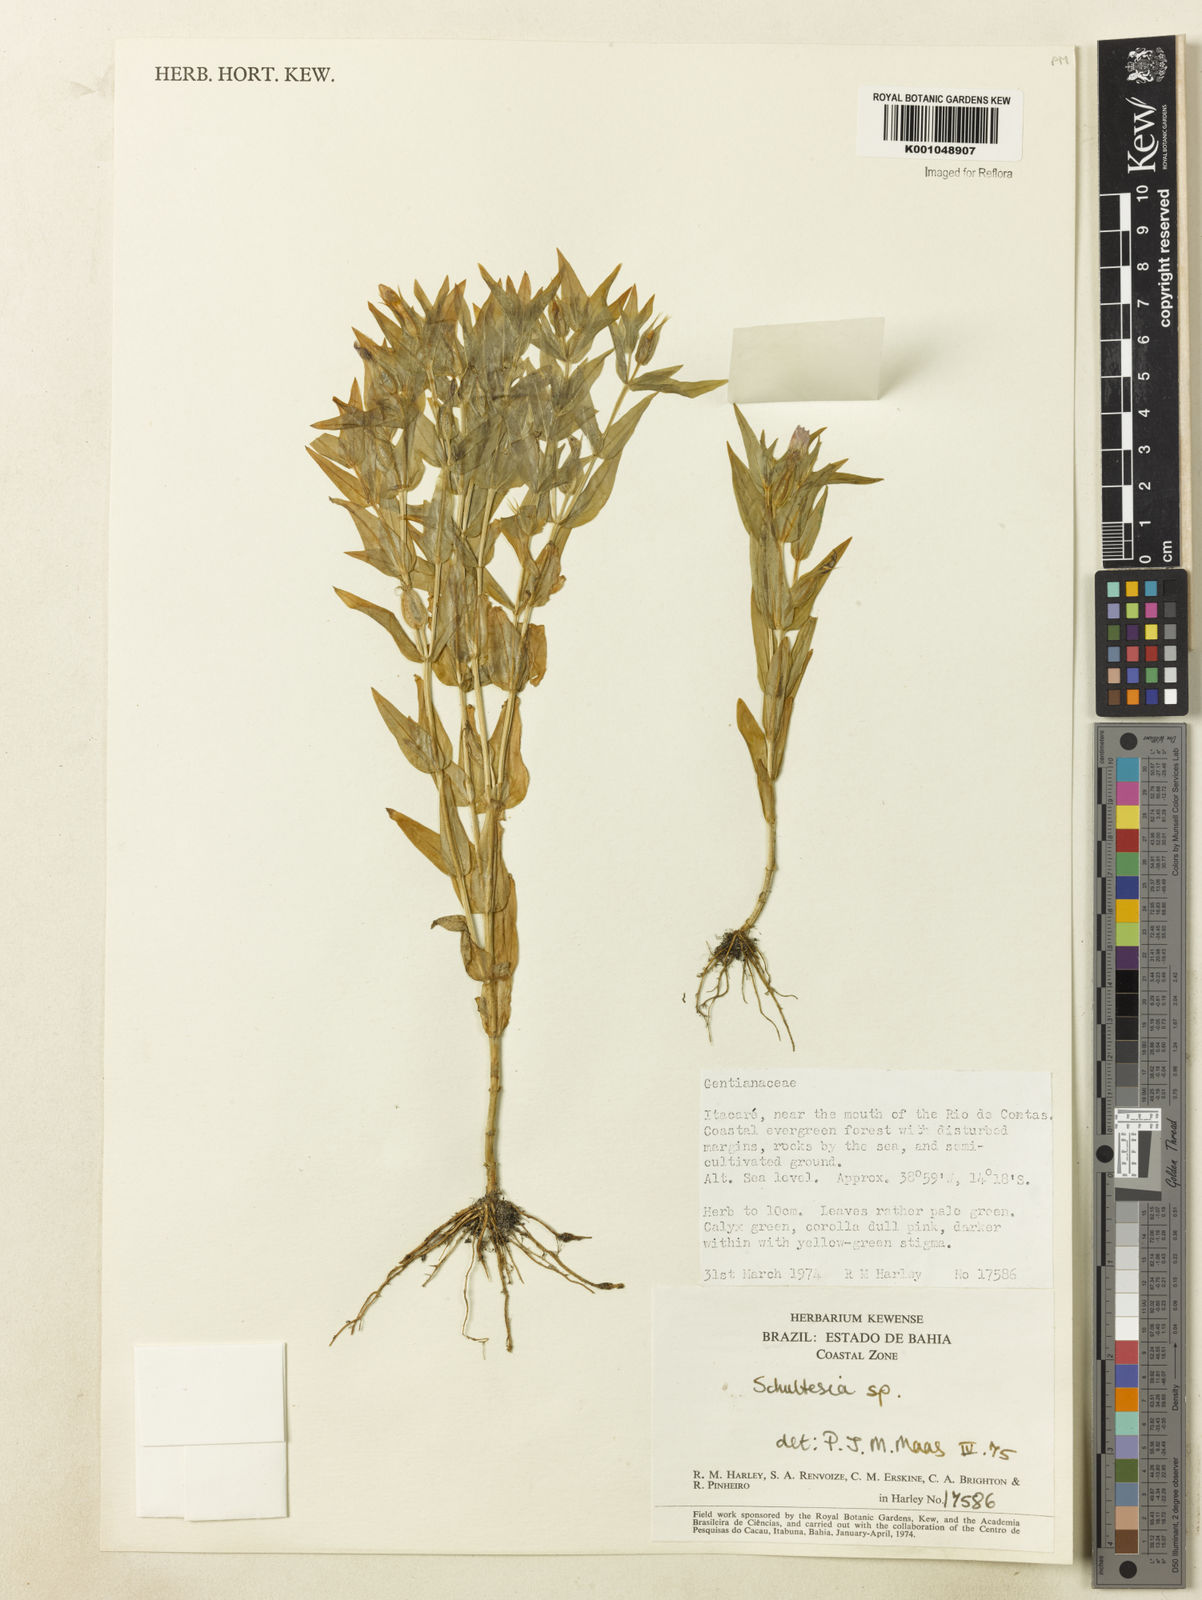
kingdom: Plantae
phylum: Tracheophyta
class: Magnoliopsida
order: Gentianales
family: Gentianaceae
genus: Schultesia
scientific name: Schultesia
